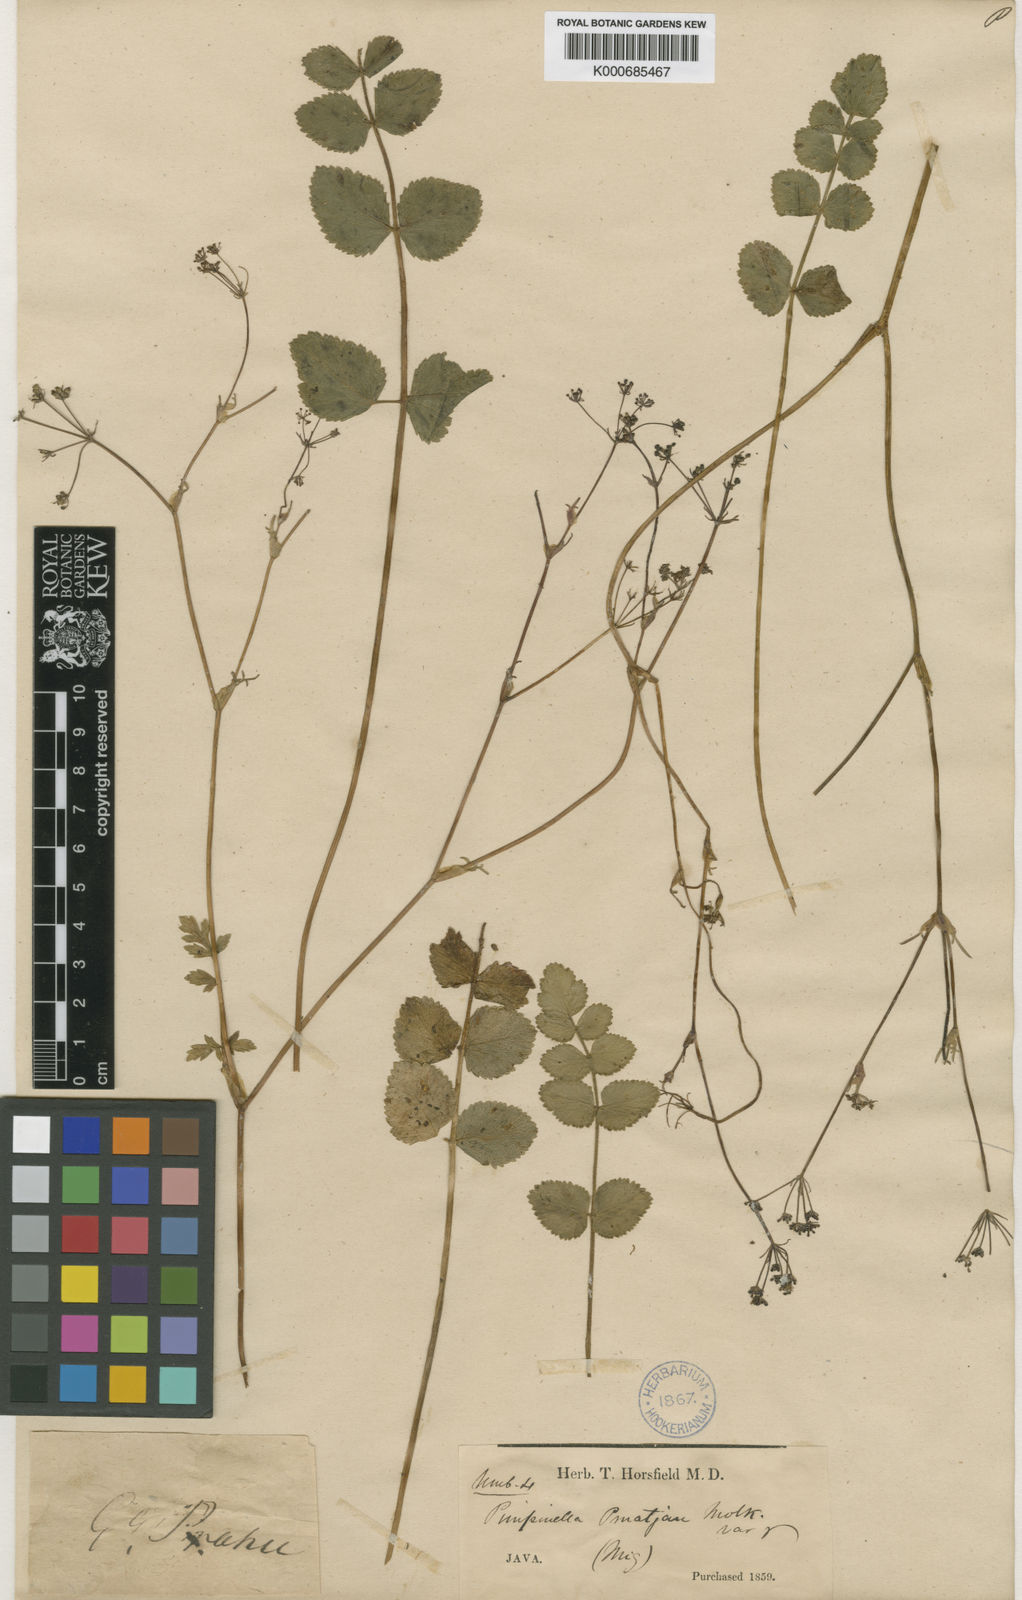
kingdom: Plantae
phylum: Tracheophyta
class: Magnoliopsida
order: Apiales
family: Apiaceae
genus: Pimpinella
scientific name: Pimpinella pruatjan
